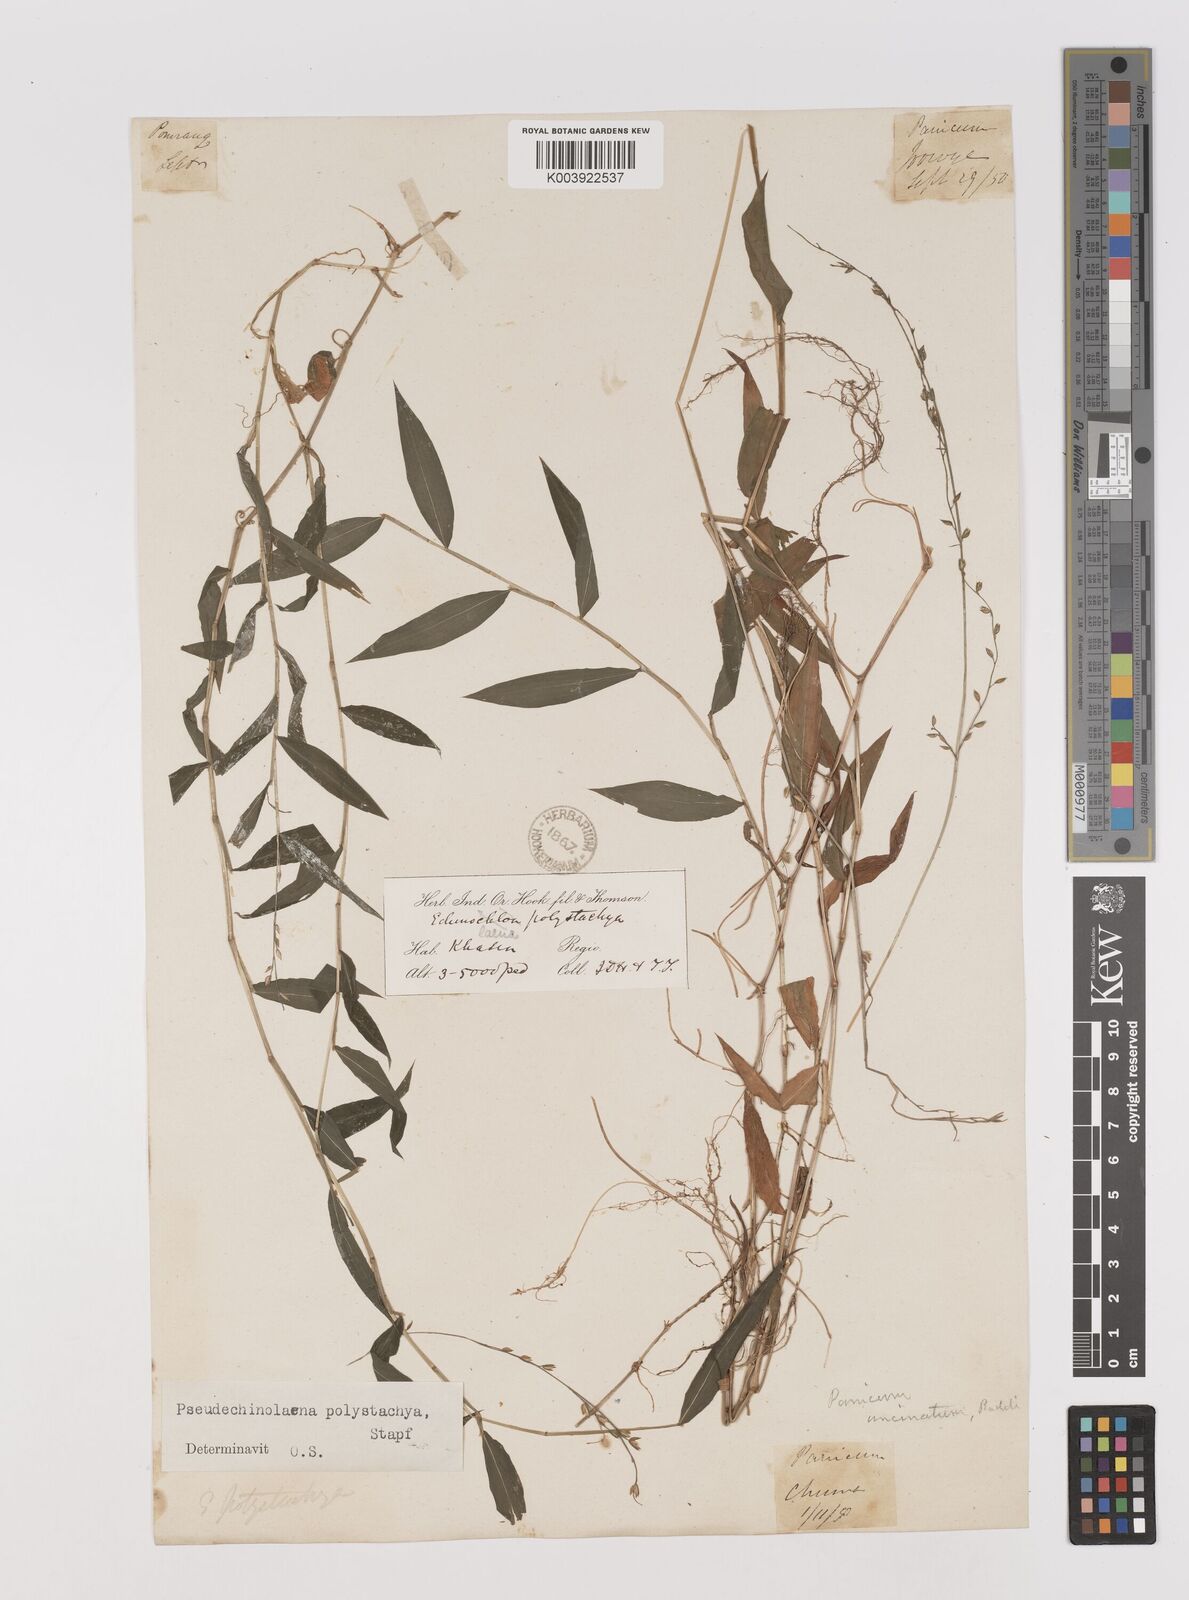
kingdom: Plantae
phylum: Tracheophyta
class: Liliopsida
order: Poales
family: Poaceae
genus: Pseudechinolaena
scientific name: Pseudechinolaena polystachya
